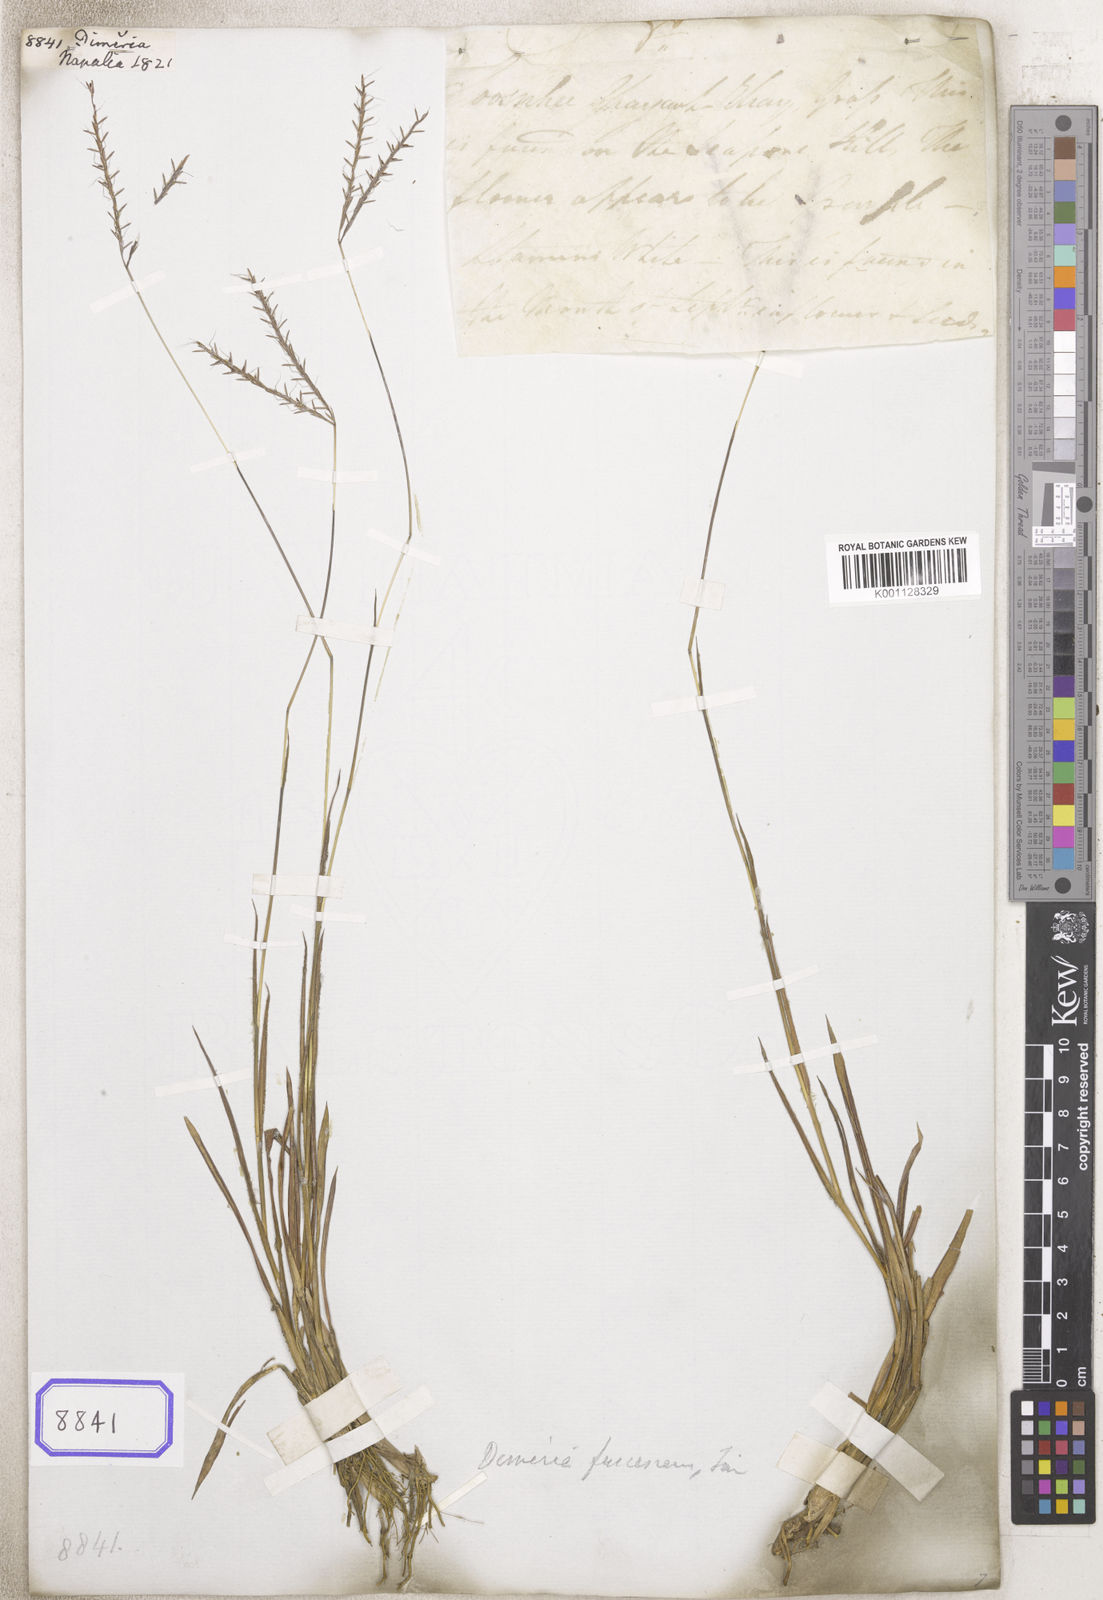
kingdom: Plantae
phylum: Tracheophyta
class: Liliopsida
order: Poales
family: Poaceae
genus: Dimeria
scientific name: Dimeria
